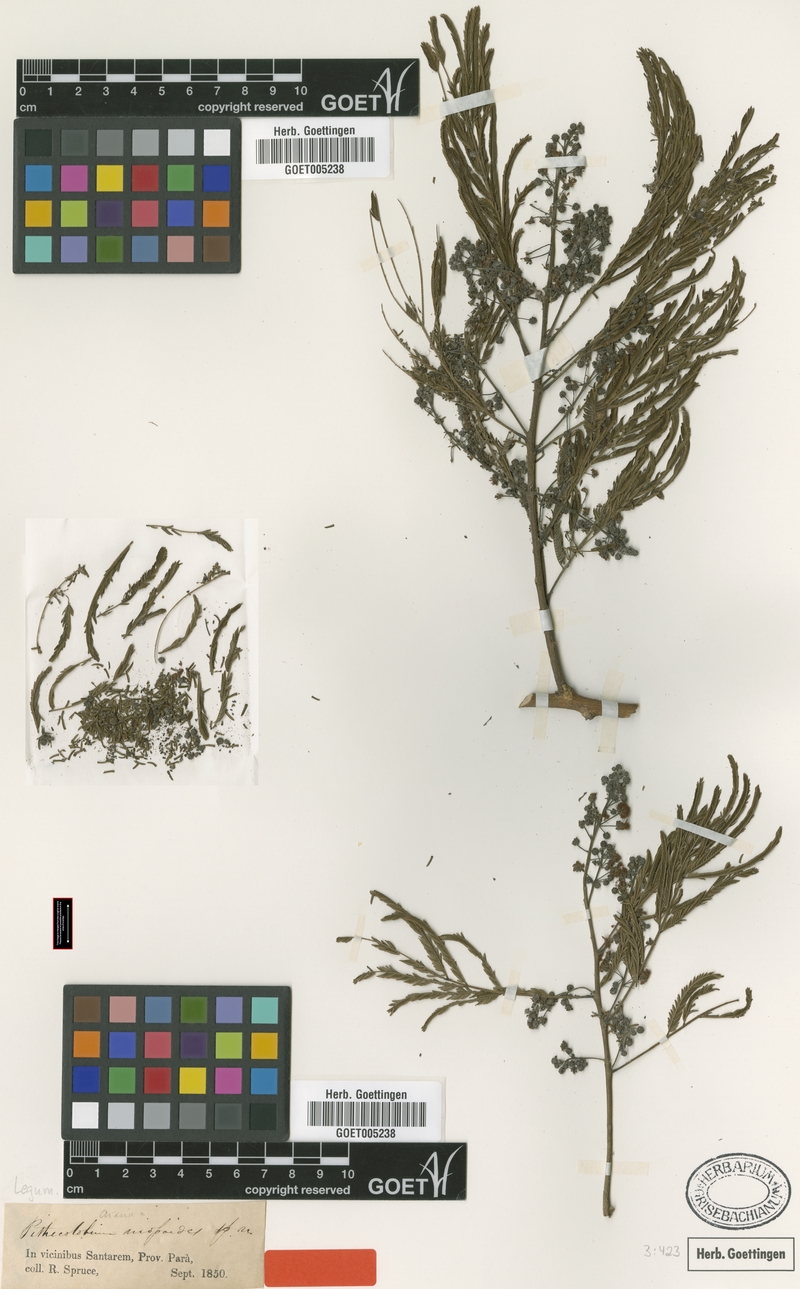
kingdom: Plantae
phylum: Tracheophyta
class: Magnoliopsida
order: Fabales
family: Fabaceae
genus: Albizia
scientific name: Albizia niopoides
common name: Silk tree
